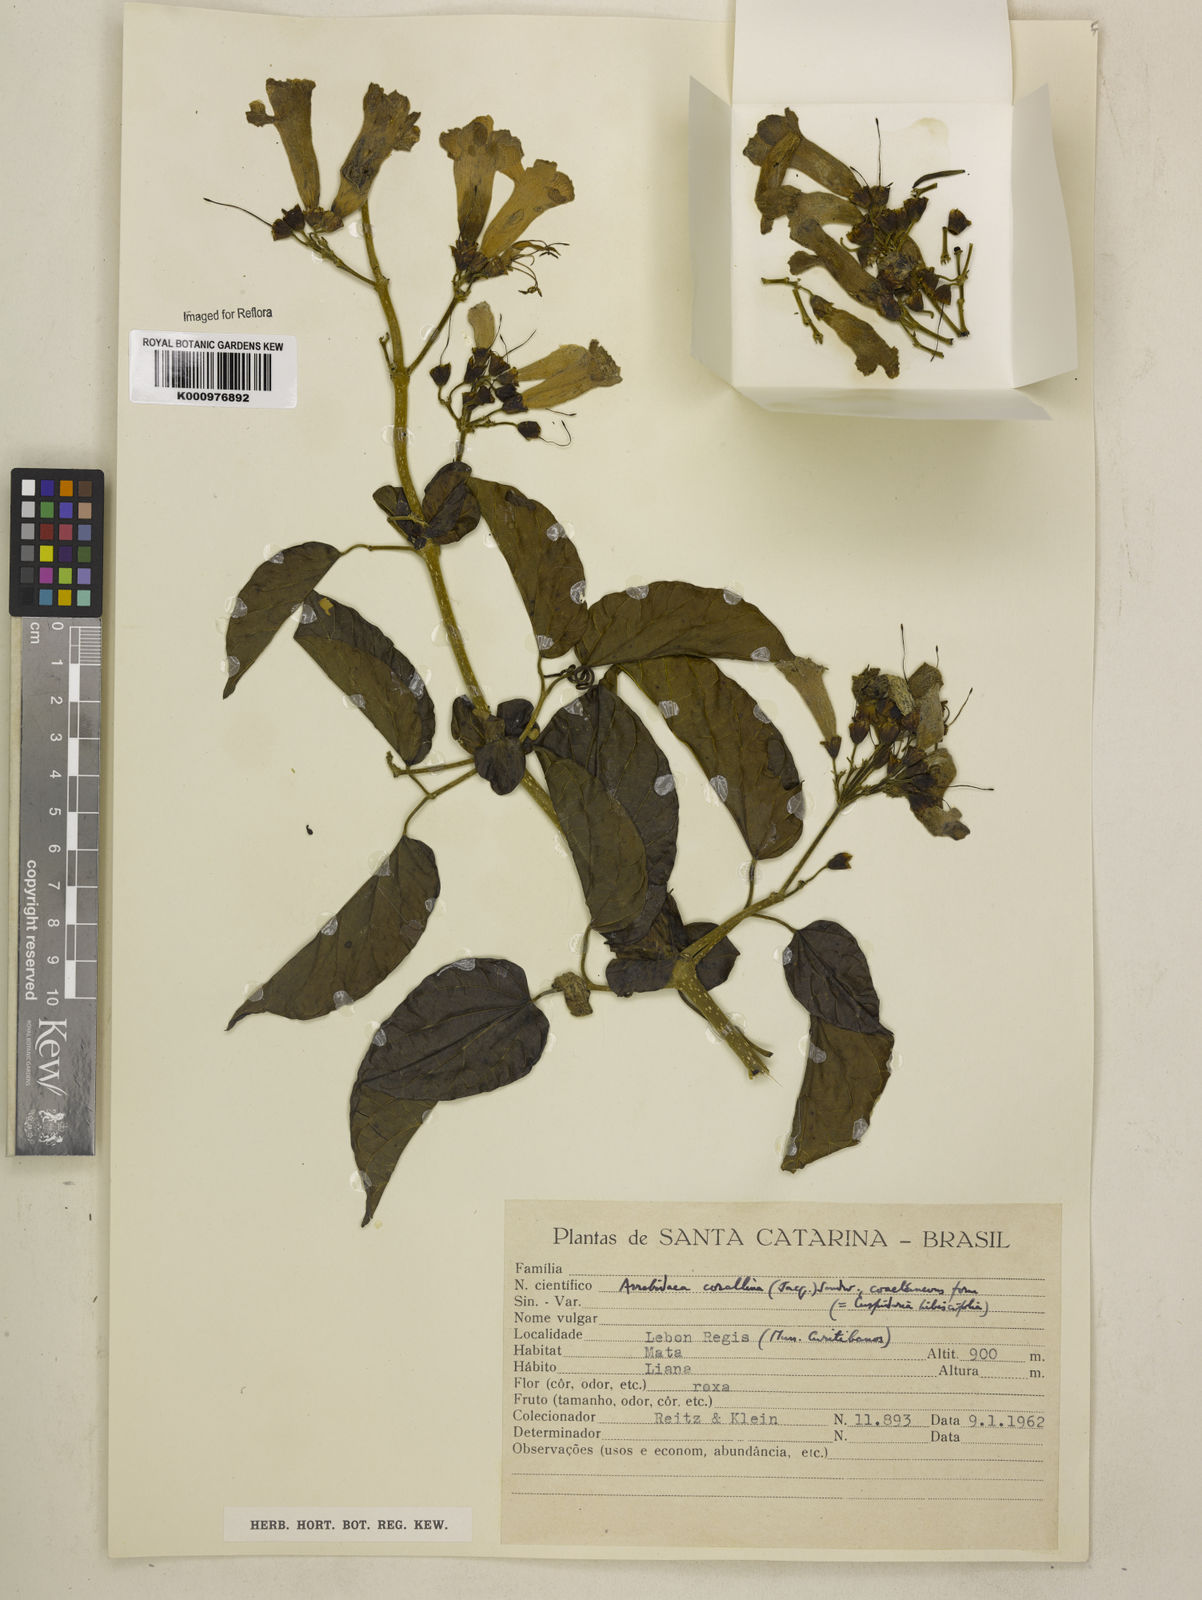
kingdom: Plantae
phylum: Tracheophyta
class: Magnoliopsida
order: Lamiales
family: Bignoniaceae
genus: Tanaecium
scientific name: Tanaecium dichotomum
